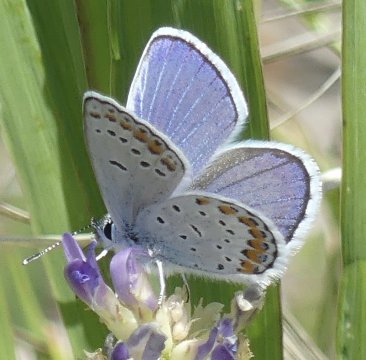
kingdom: Animalia
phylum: Arthropoda
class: Insecta
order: Lepidoptera
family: Lycaenidae
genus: Lycaeides
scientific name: Lycaeides melissa
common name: Melissa Blue
